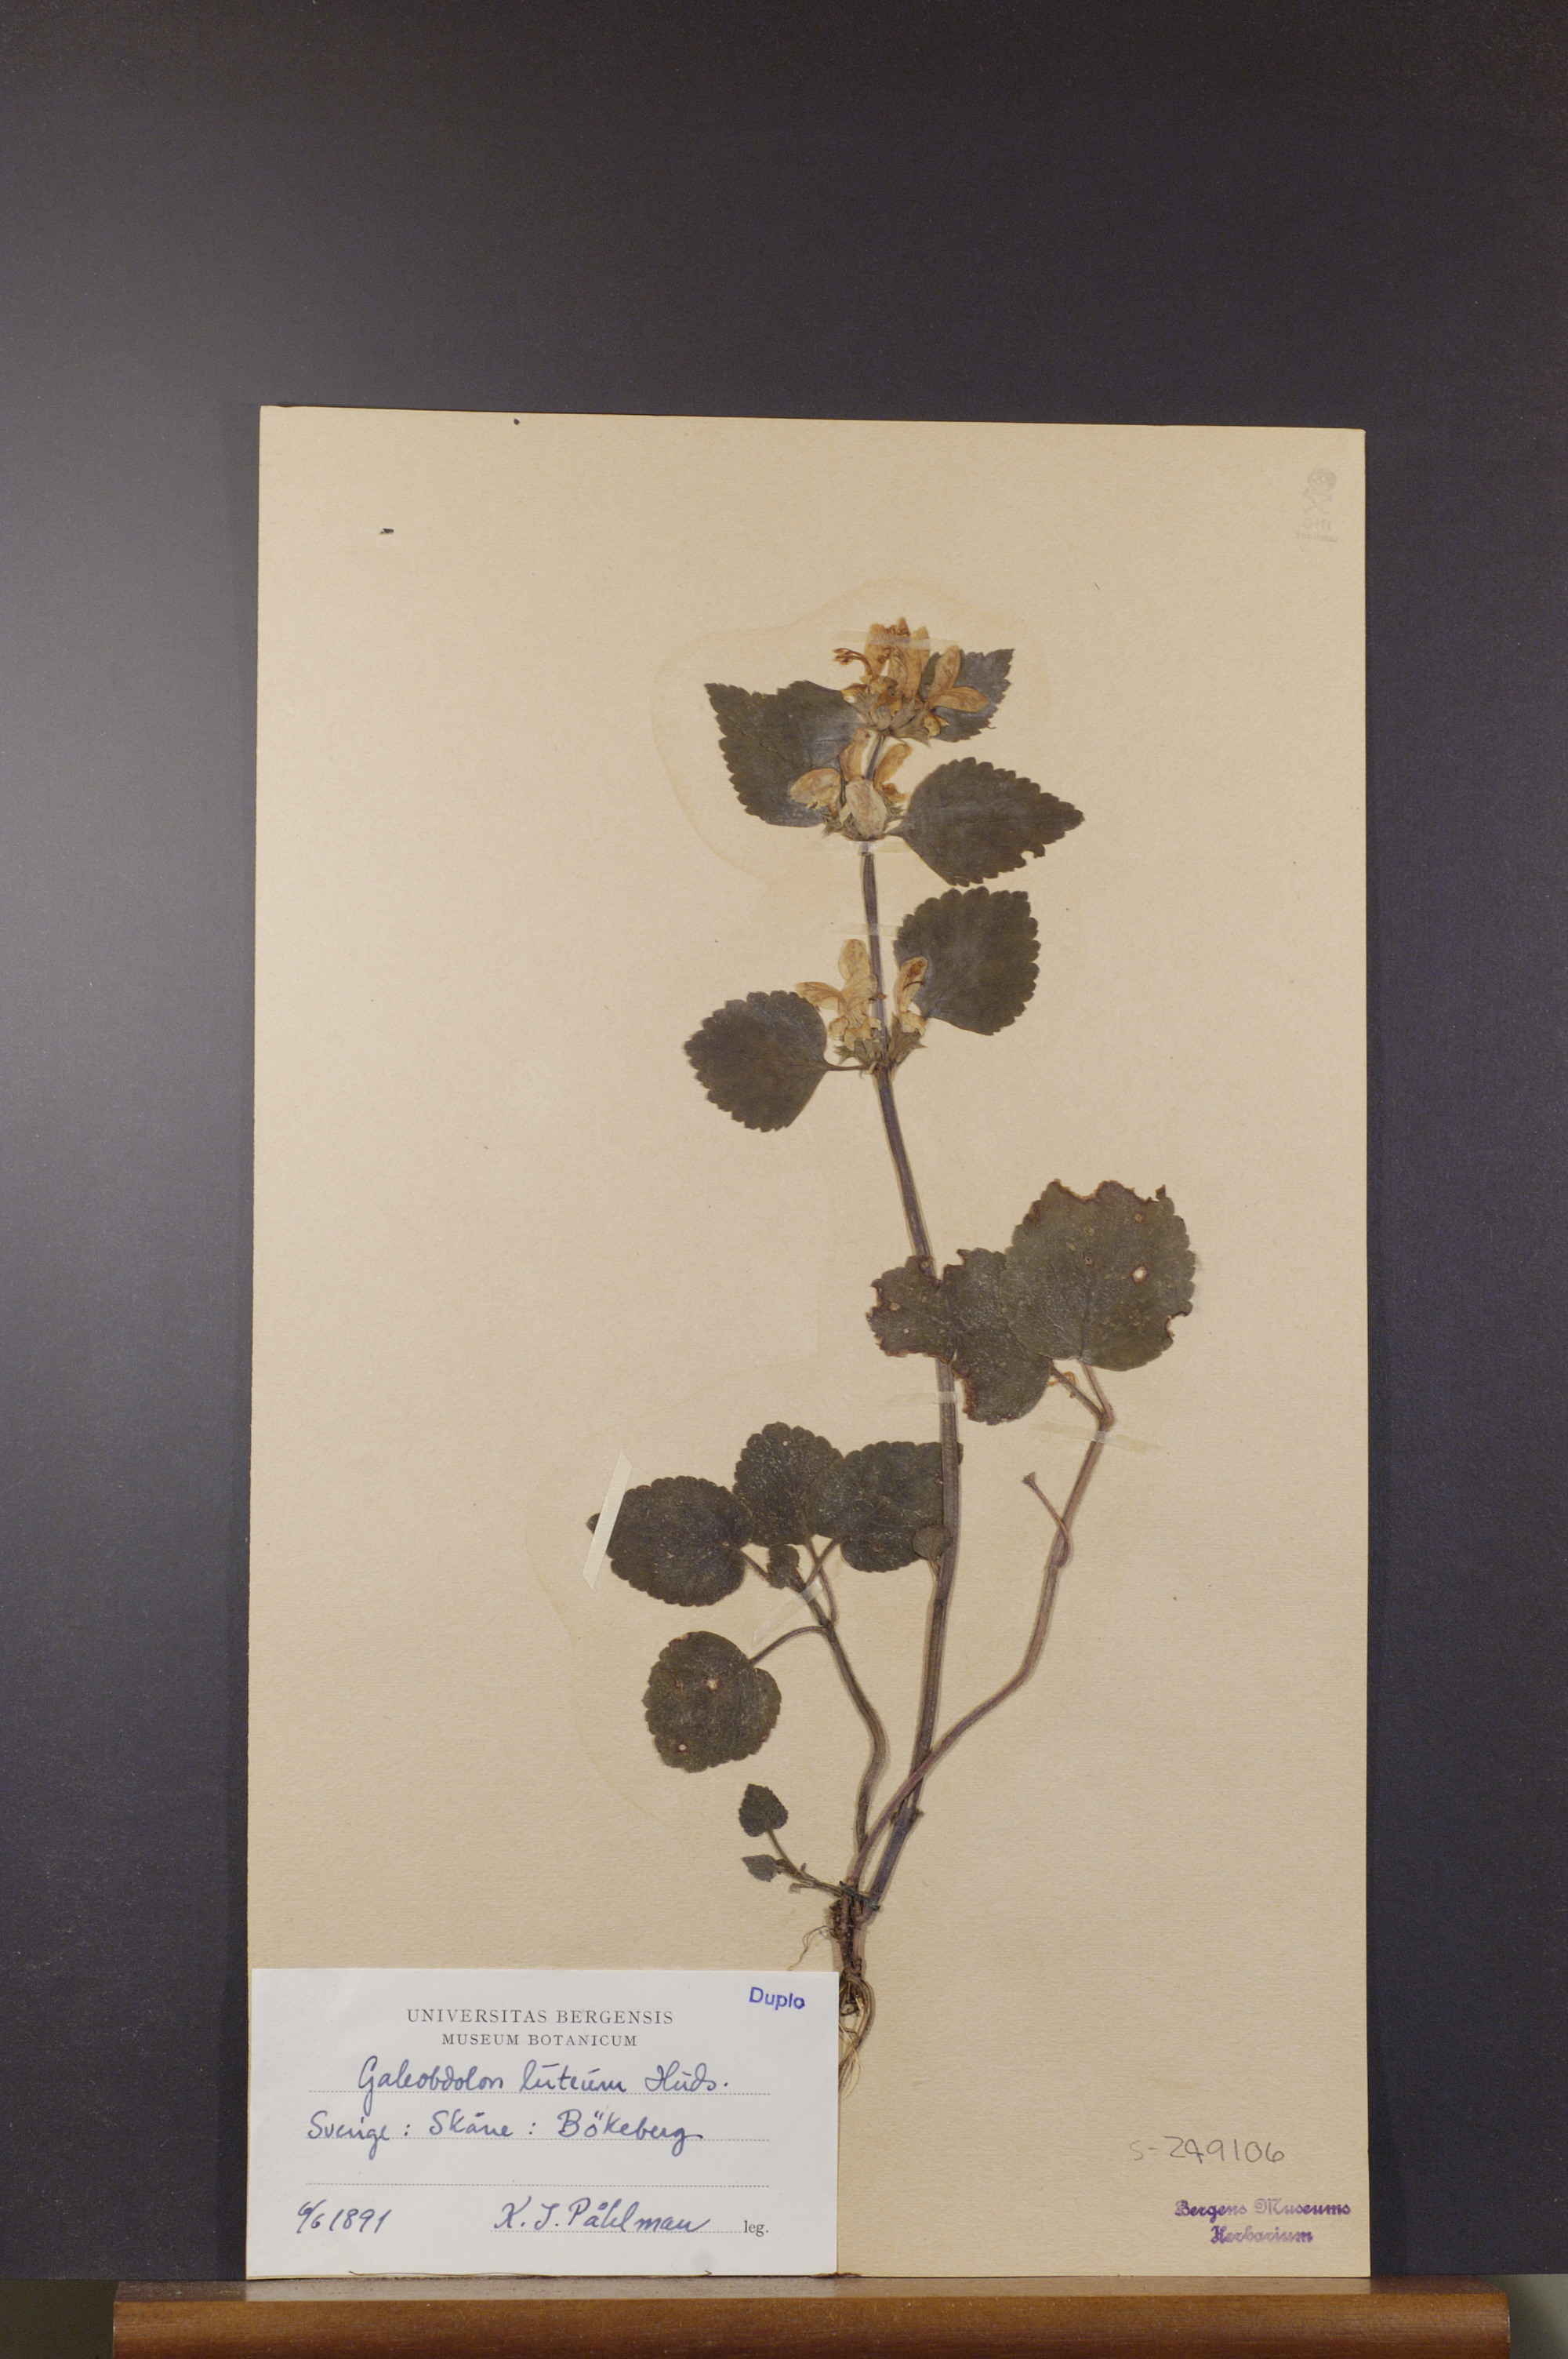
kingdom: Plantae
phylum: Tracheophyta
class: Magnoliopsida
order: Lamiales
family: Lamiaceae
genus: Lamium
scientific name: Lamium galeobdolon
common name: Yellow archangel
